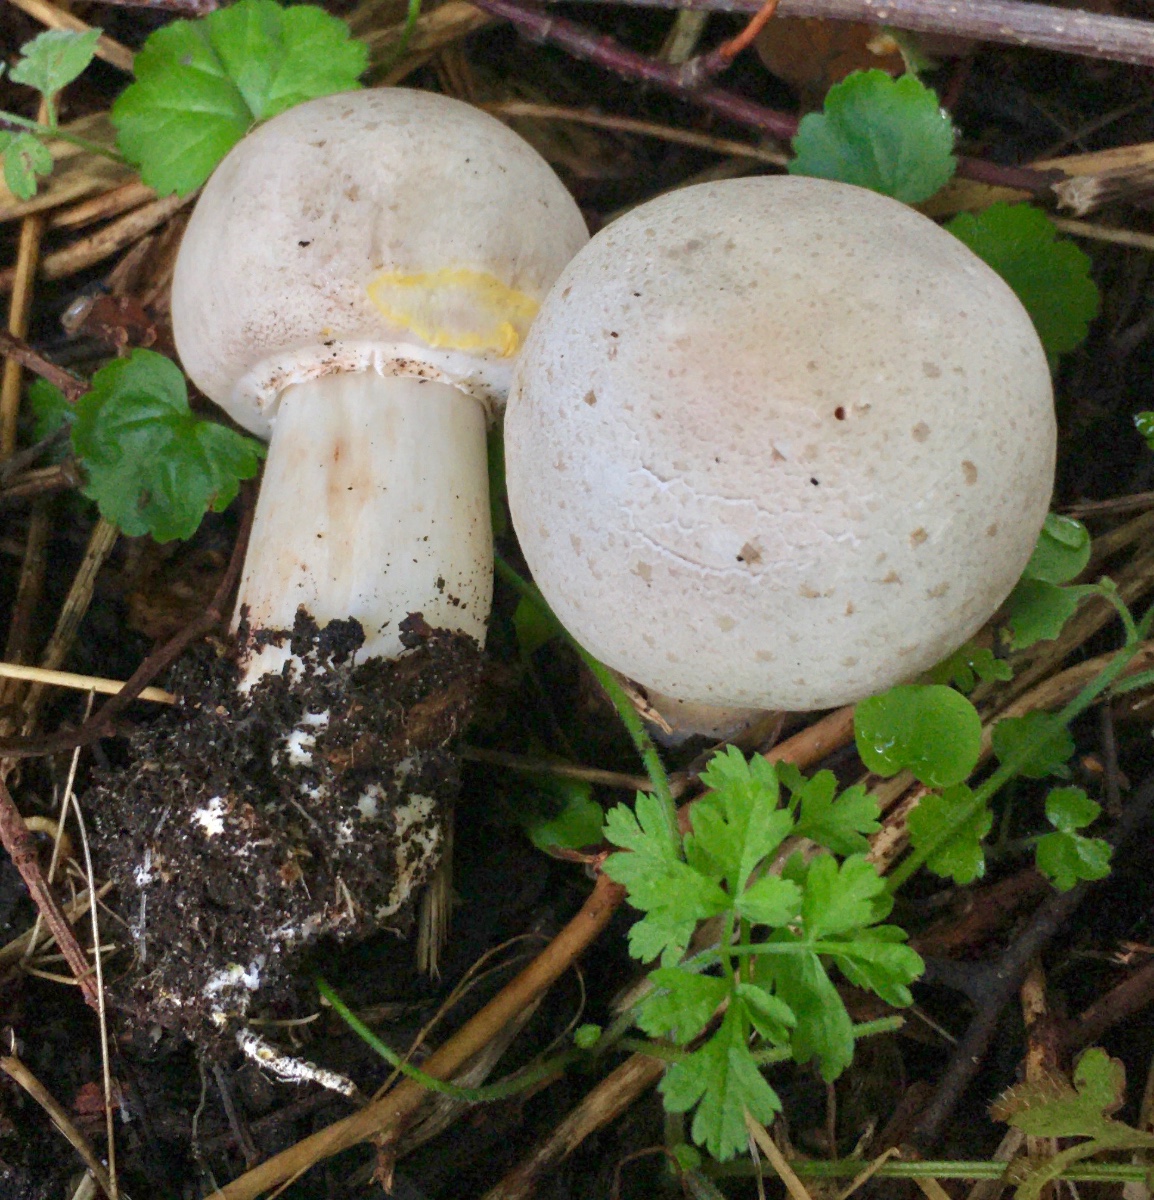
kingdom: Fungi
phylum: Basidiomycota
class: Agaricomycetes
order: Agaricales
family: Agaricaceae
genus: Agaricus
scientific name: Agaricus xanthodermus
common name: karbol-champignon
